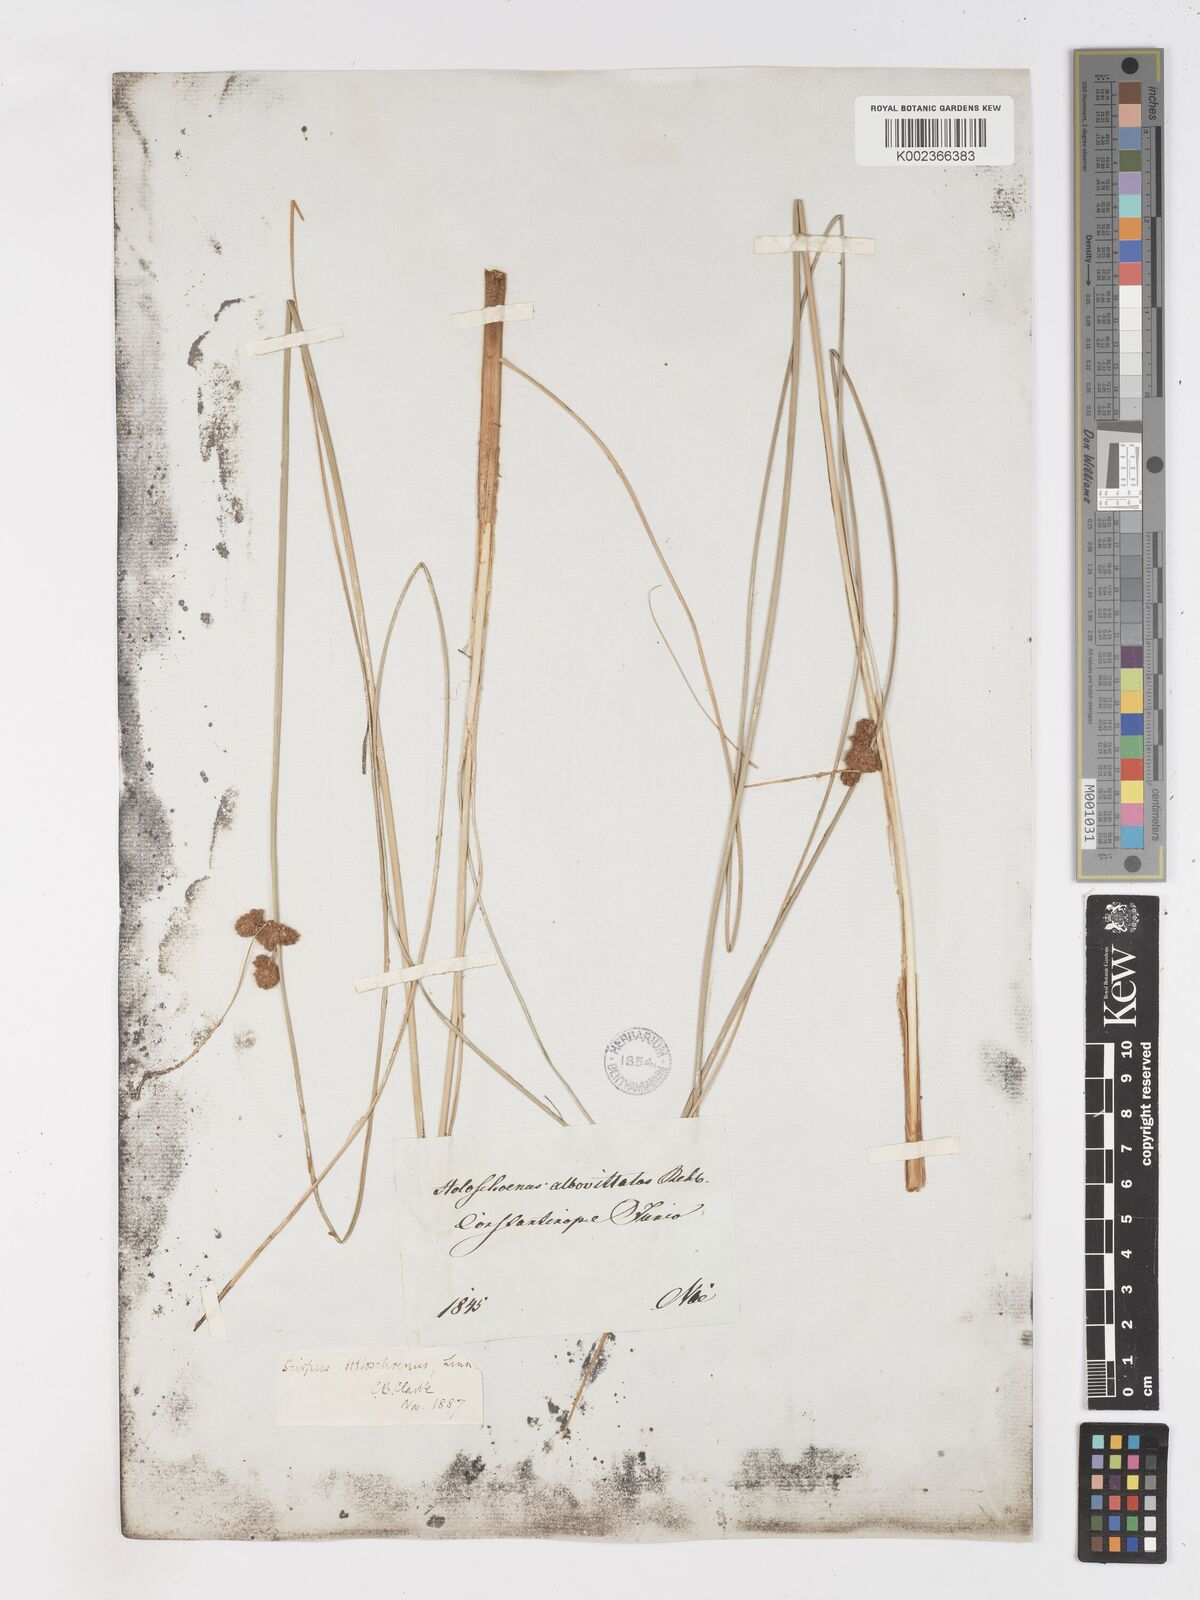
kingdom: Plantae
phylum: Tracheophyta
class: Liliopsida
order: Poales
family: Cyperaceae
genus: Scirpoides
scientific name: Scirpoides holoschoenus
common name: Round-headed club-rush
